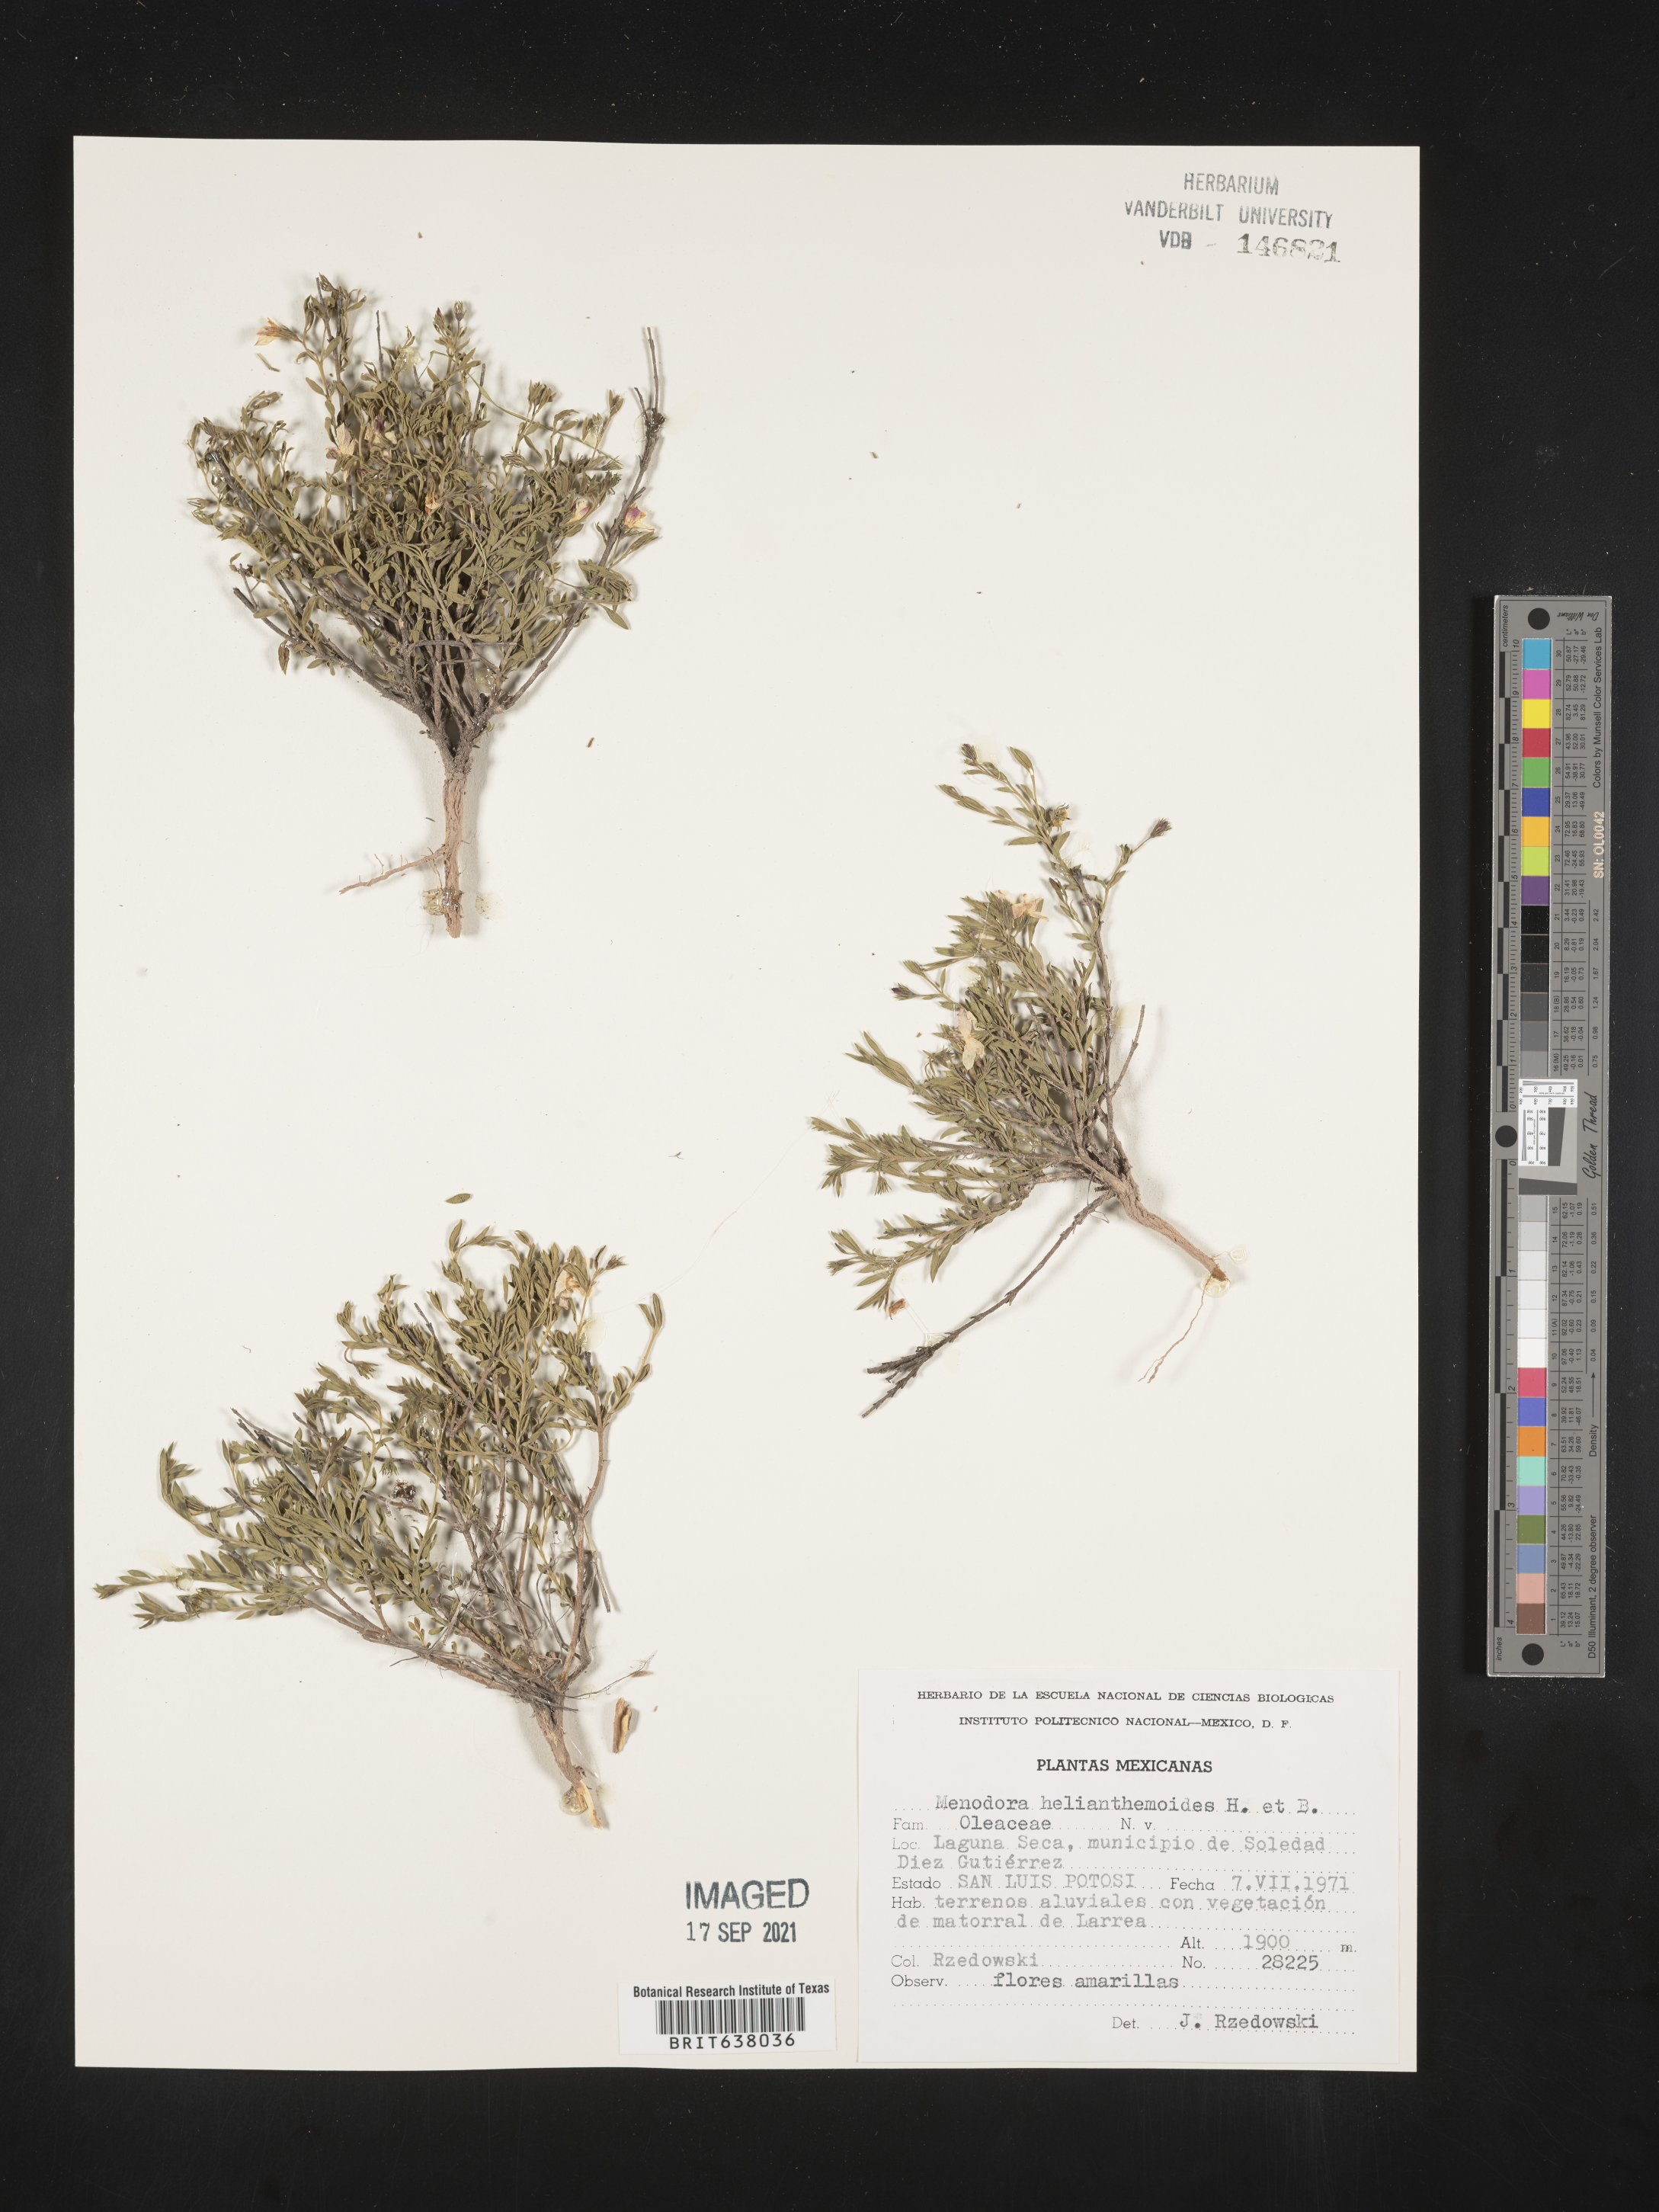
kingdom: Plantae
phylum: Tracheophyta
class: Magnoliopsida
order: Lamiales
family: Oleaceae
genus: Menodora
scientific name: Menodora
